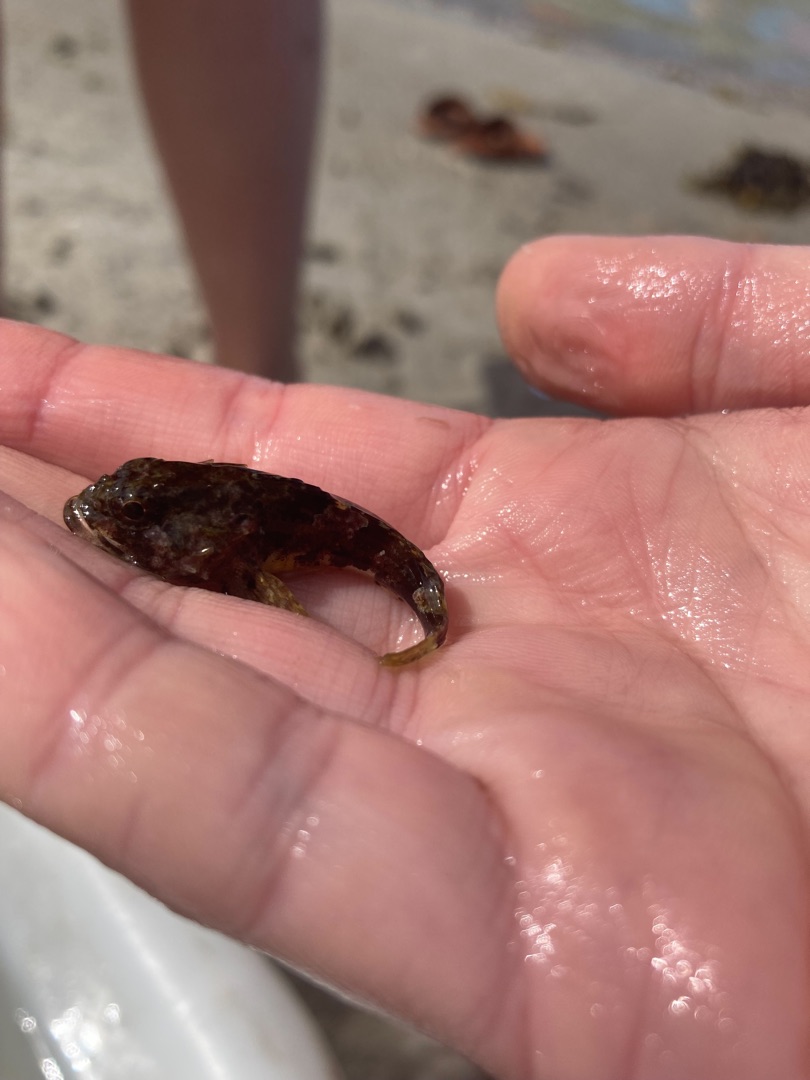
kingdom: Animalia
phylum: Chordata
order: Scorpaeniformes
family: Cottidae
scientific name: Cottidae
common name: Ulkefamilien
